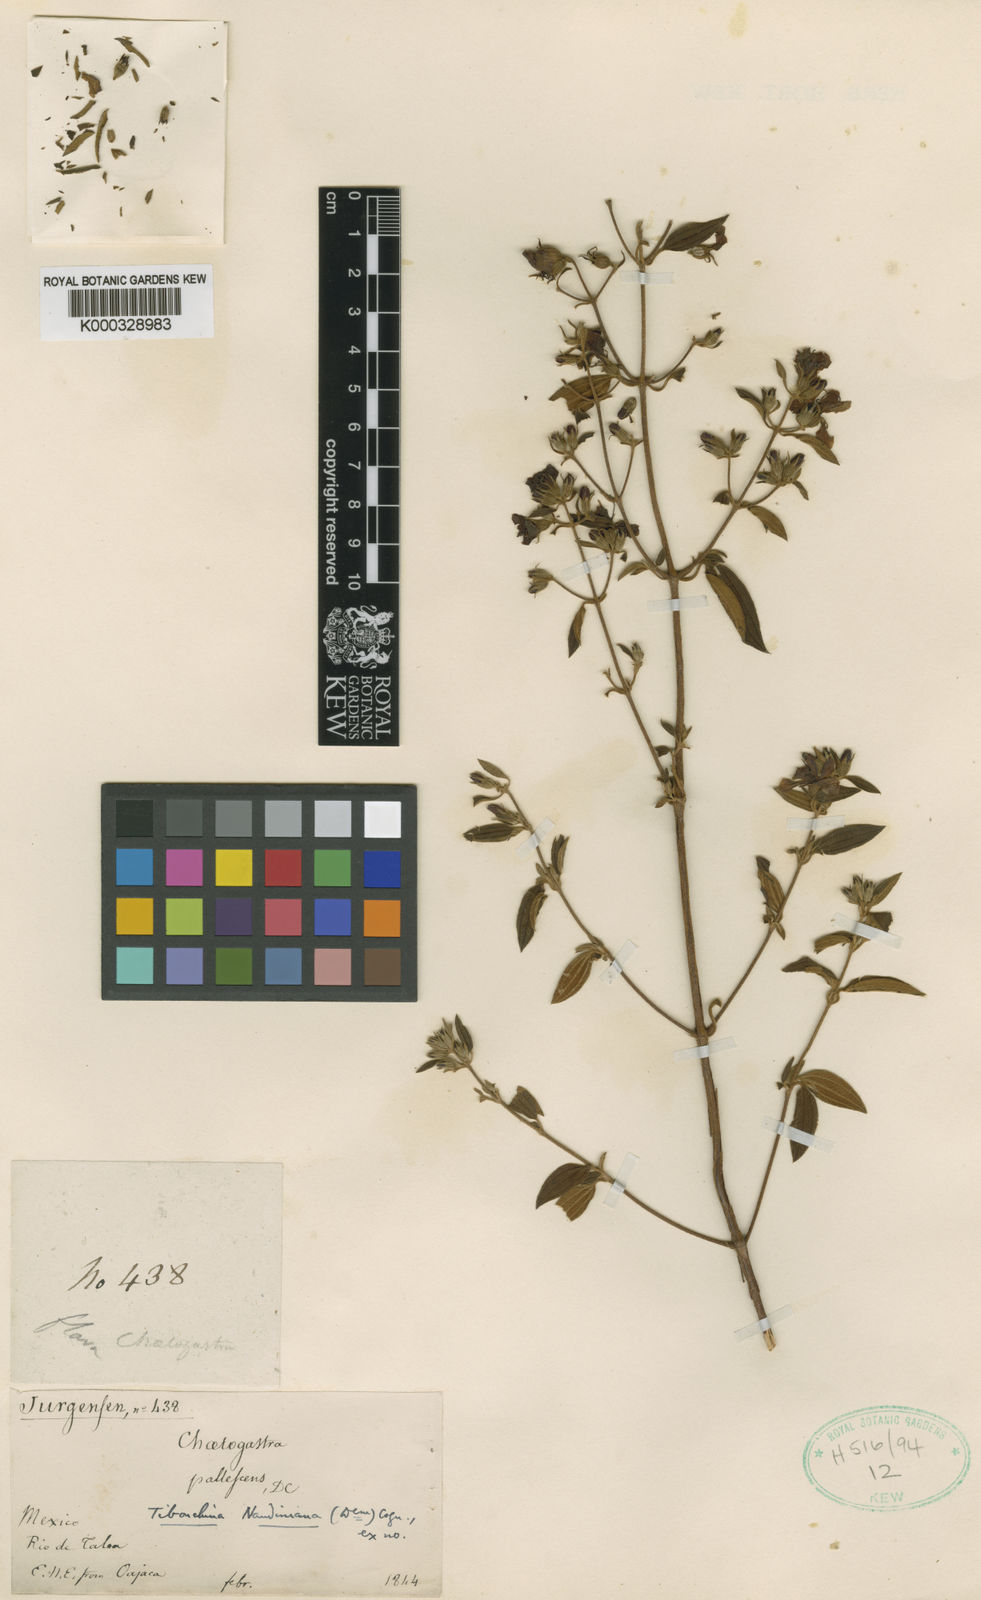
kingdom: Plantae
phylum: Tracheophyta
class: Magnoliopsida
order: Myrtales
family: Melastomataceae
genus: Chaetogastra
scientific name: Chaetogastra naudiniana
